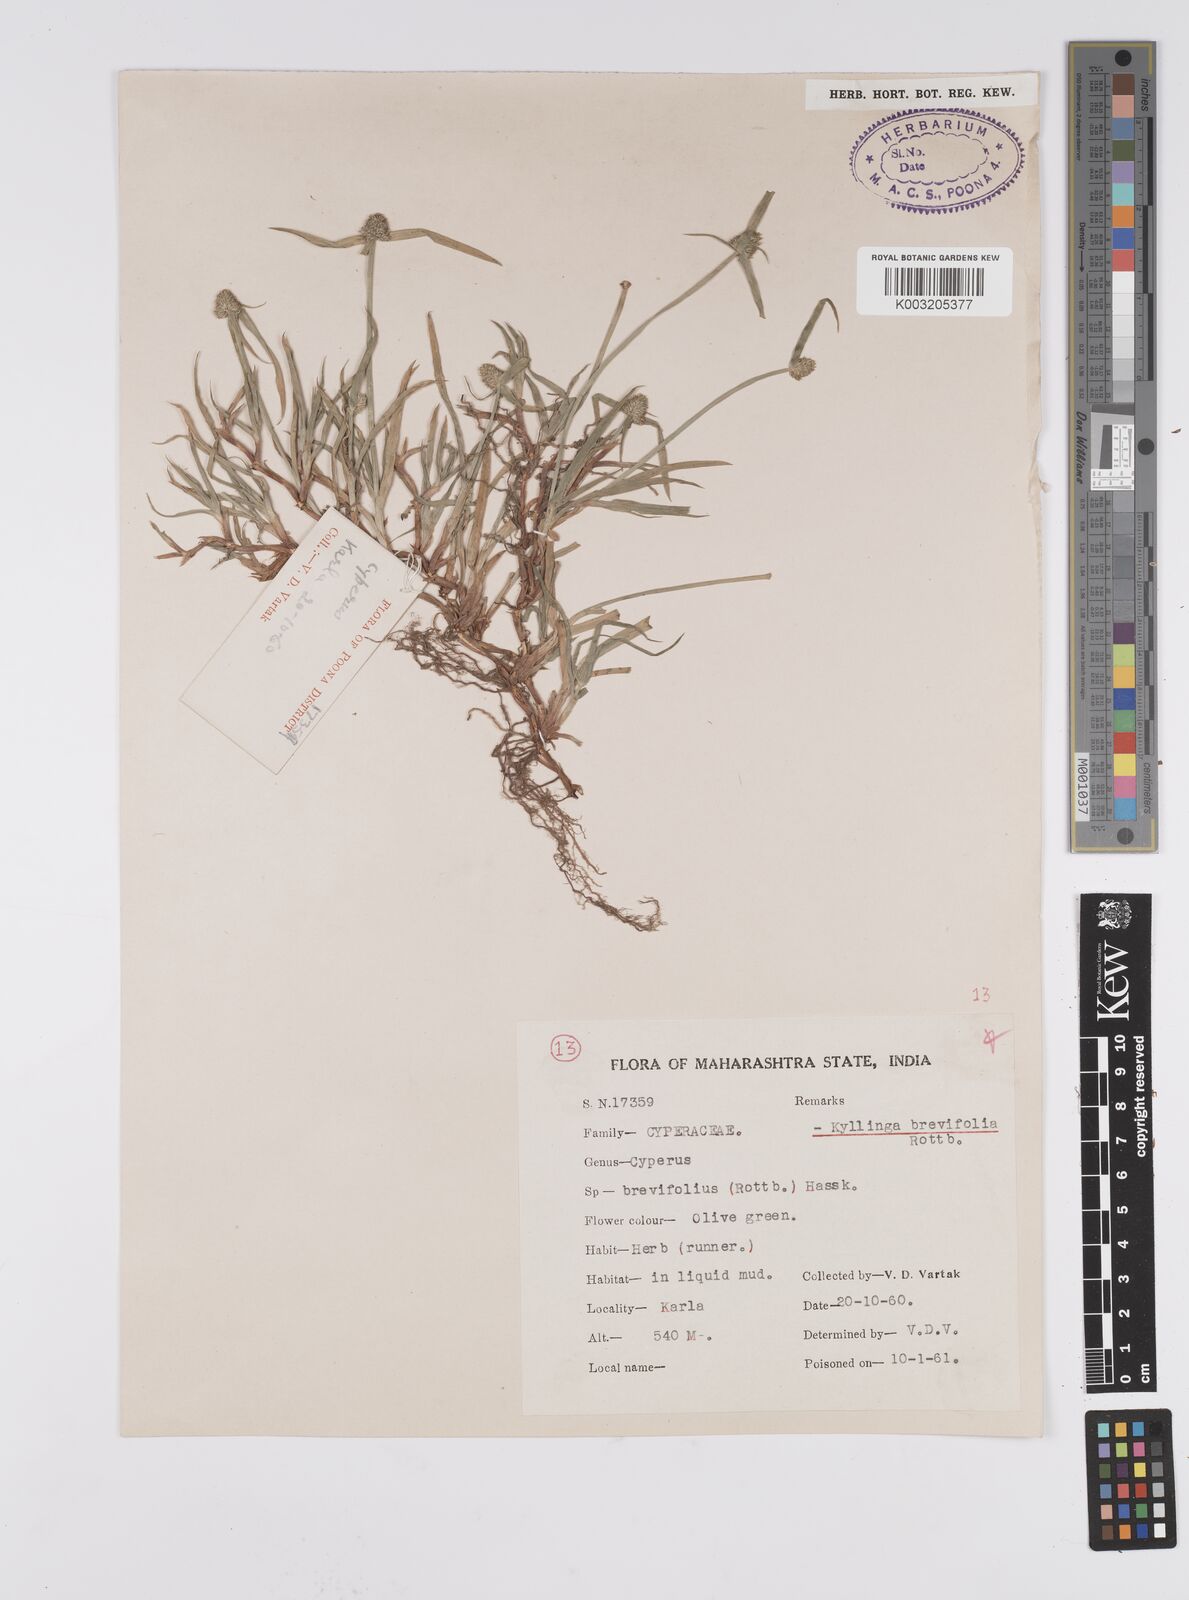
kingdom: Plantae
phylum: Tracheophyta
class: Liliopsida
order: Poales
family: Cyperaceae
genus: Cyperus
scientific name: Cyperus brevifolius
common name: Globe kyllinga
